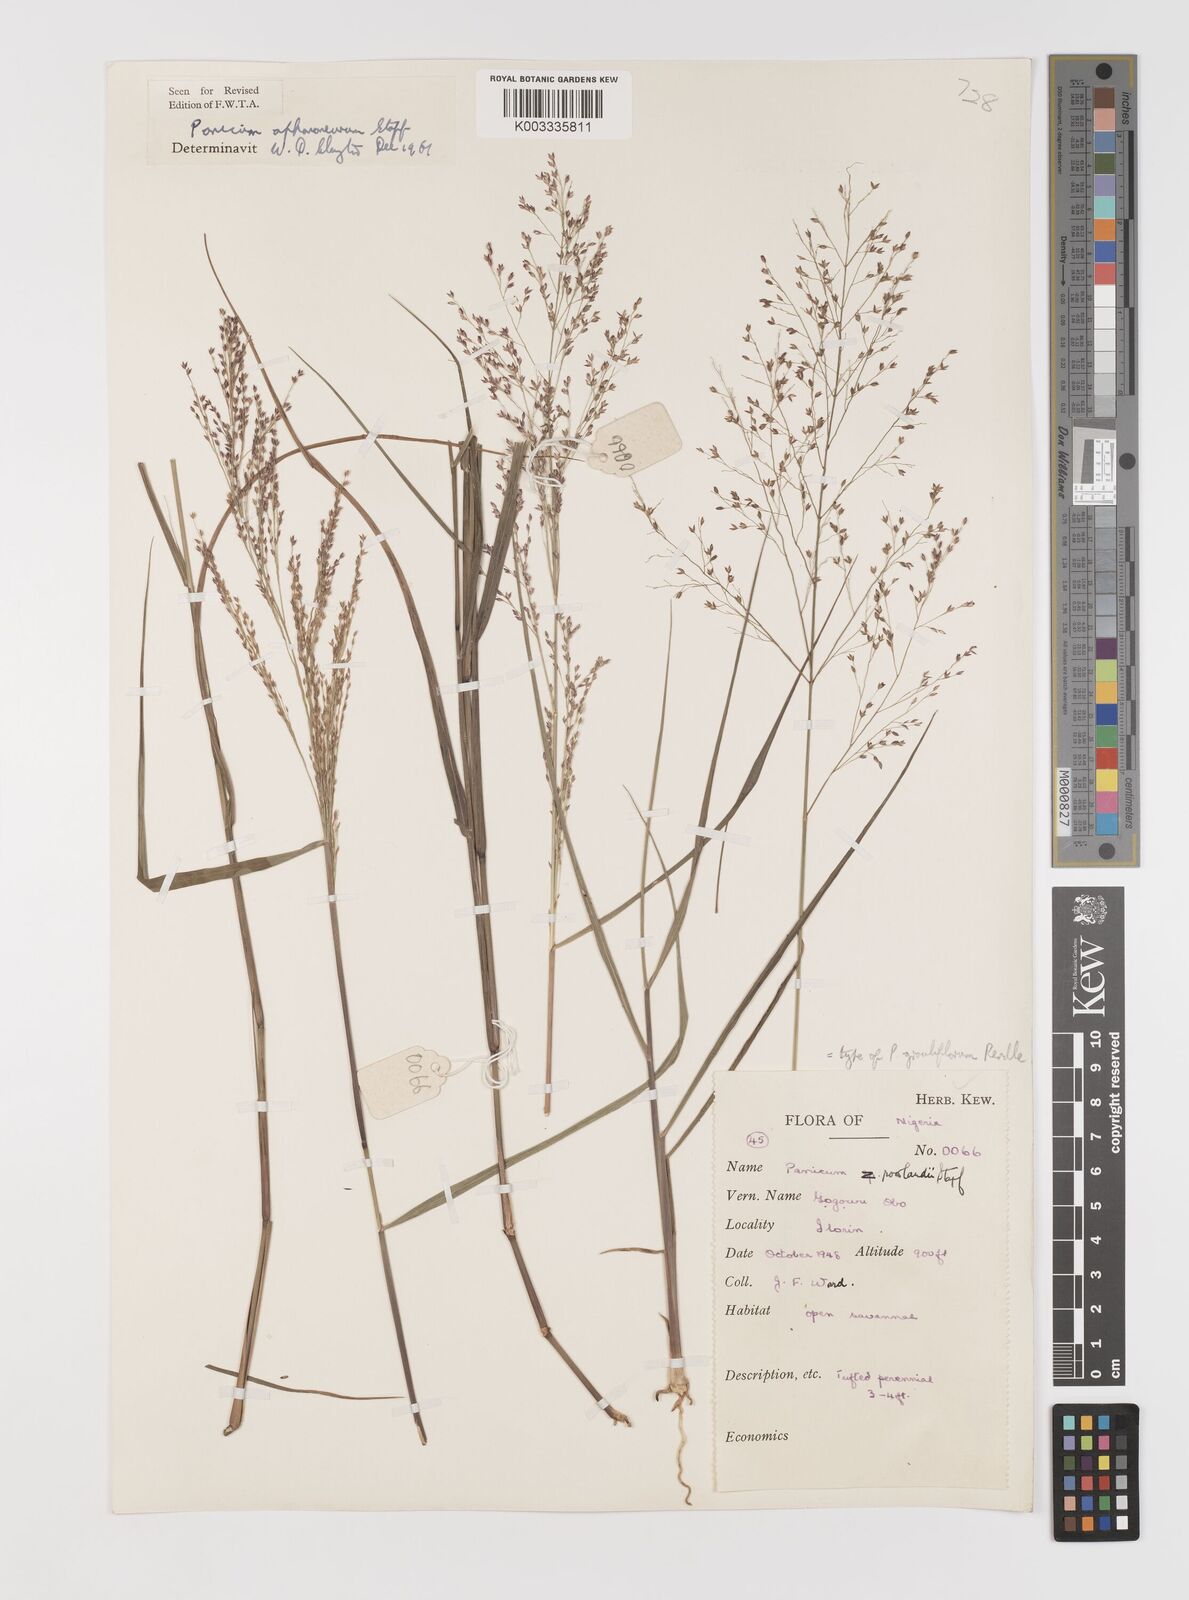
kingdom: Plantae
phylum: Tracheophyta
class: Liliopsida
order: Poales
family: Poaceae
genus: Panicum
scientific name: Panicum fluviicola
